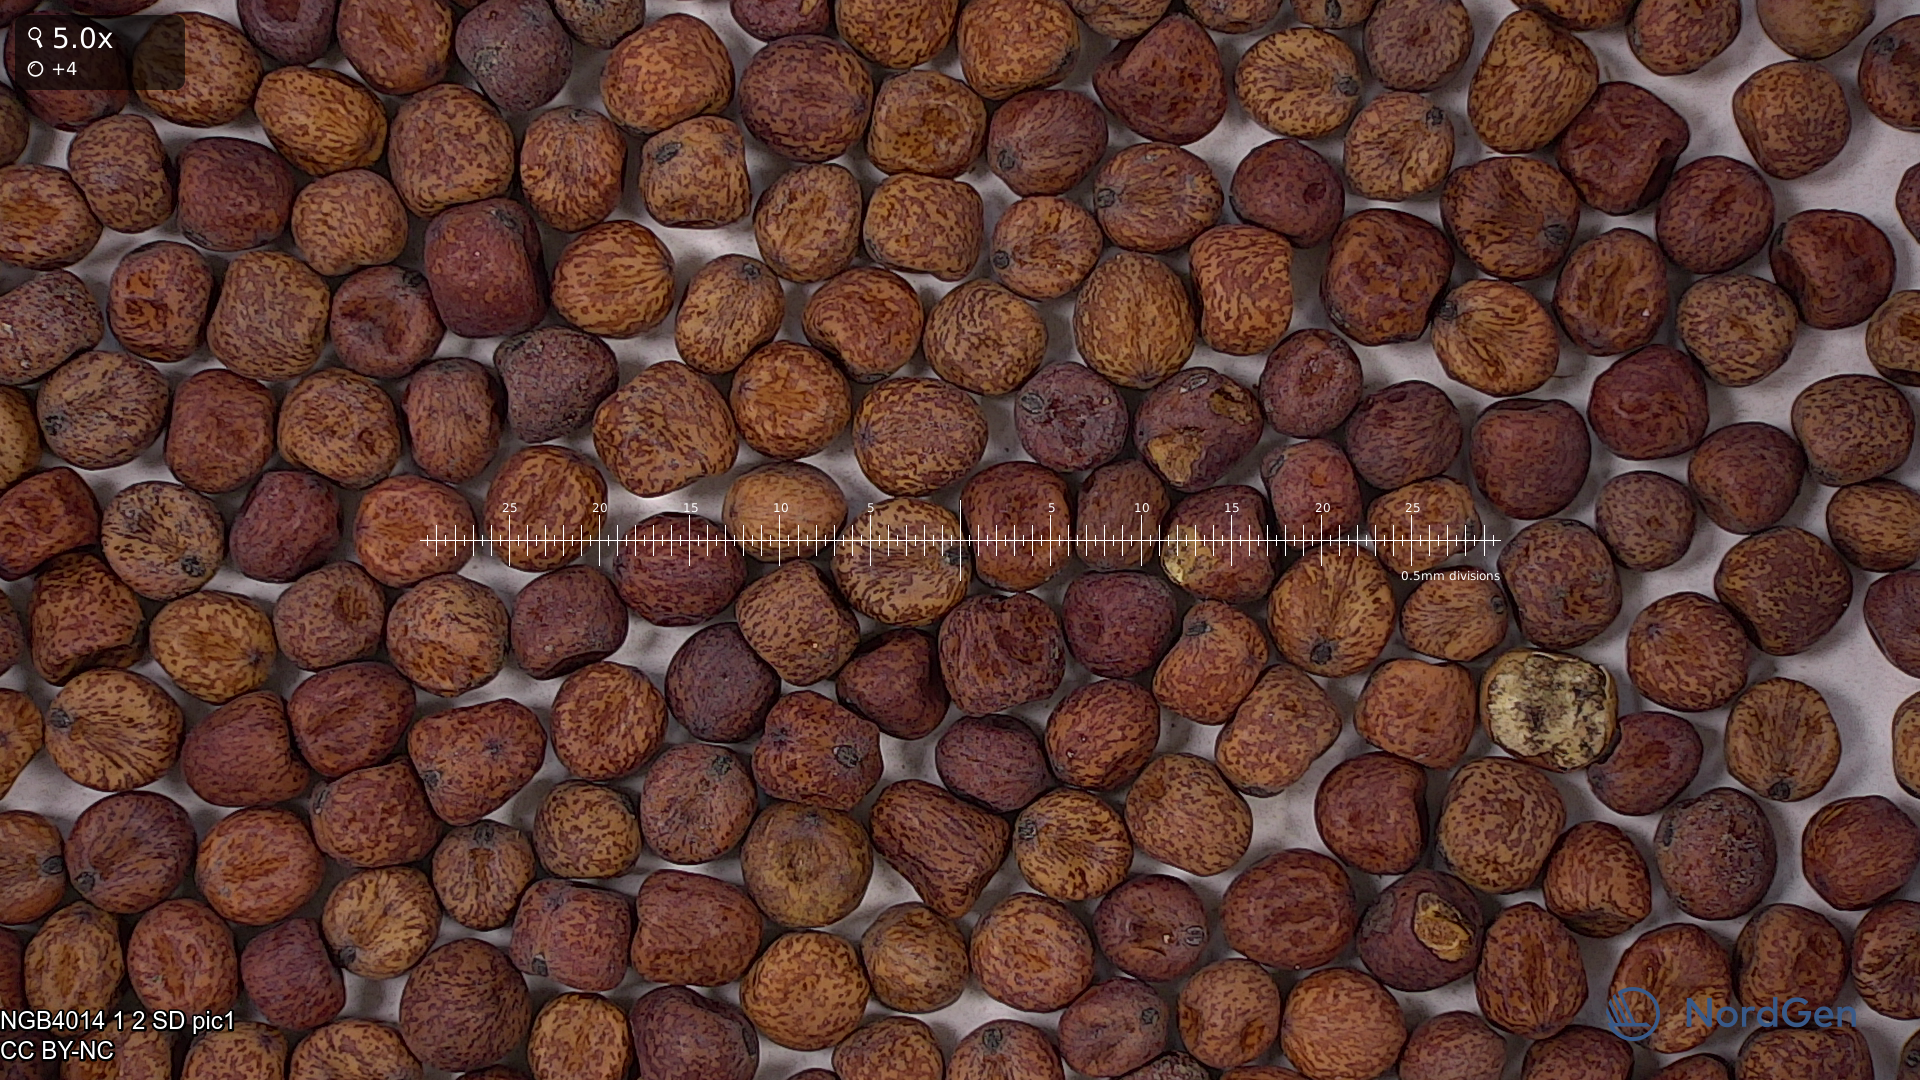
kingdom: Plantae
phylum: Tracheophyta
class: Magnoliopsida
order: Fabales
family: Fabaceae
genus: Lathyrus
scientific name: Lathyrus oleraceus
